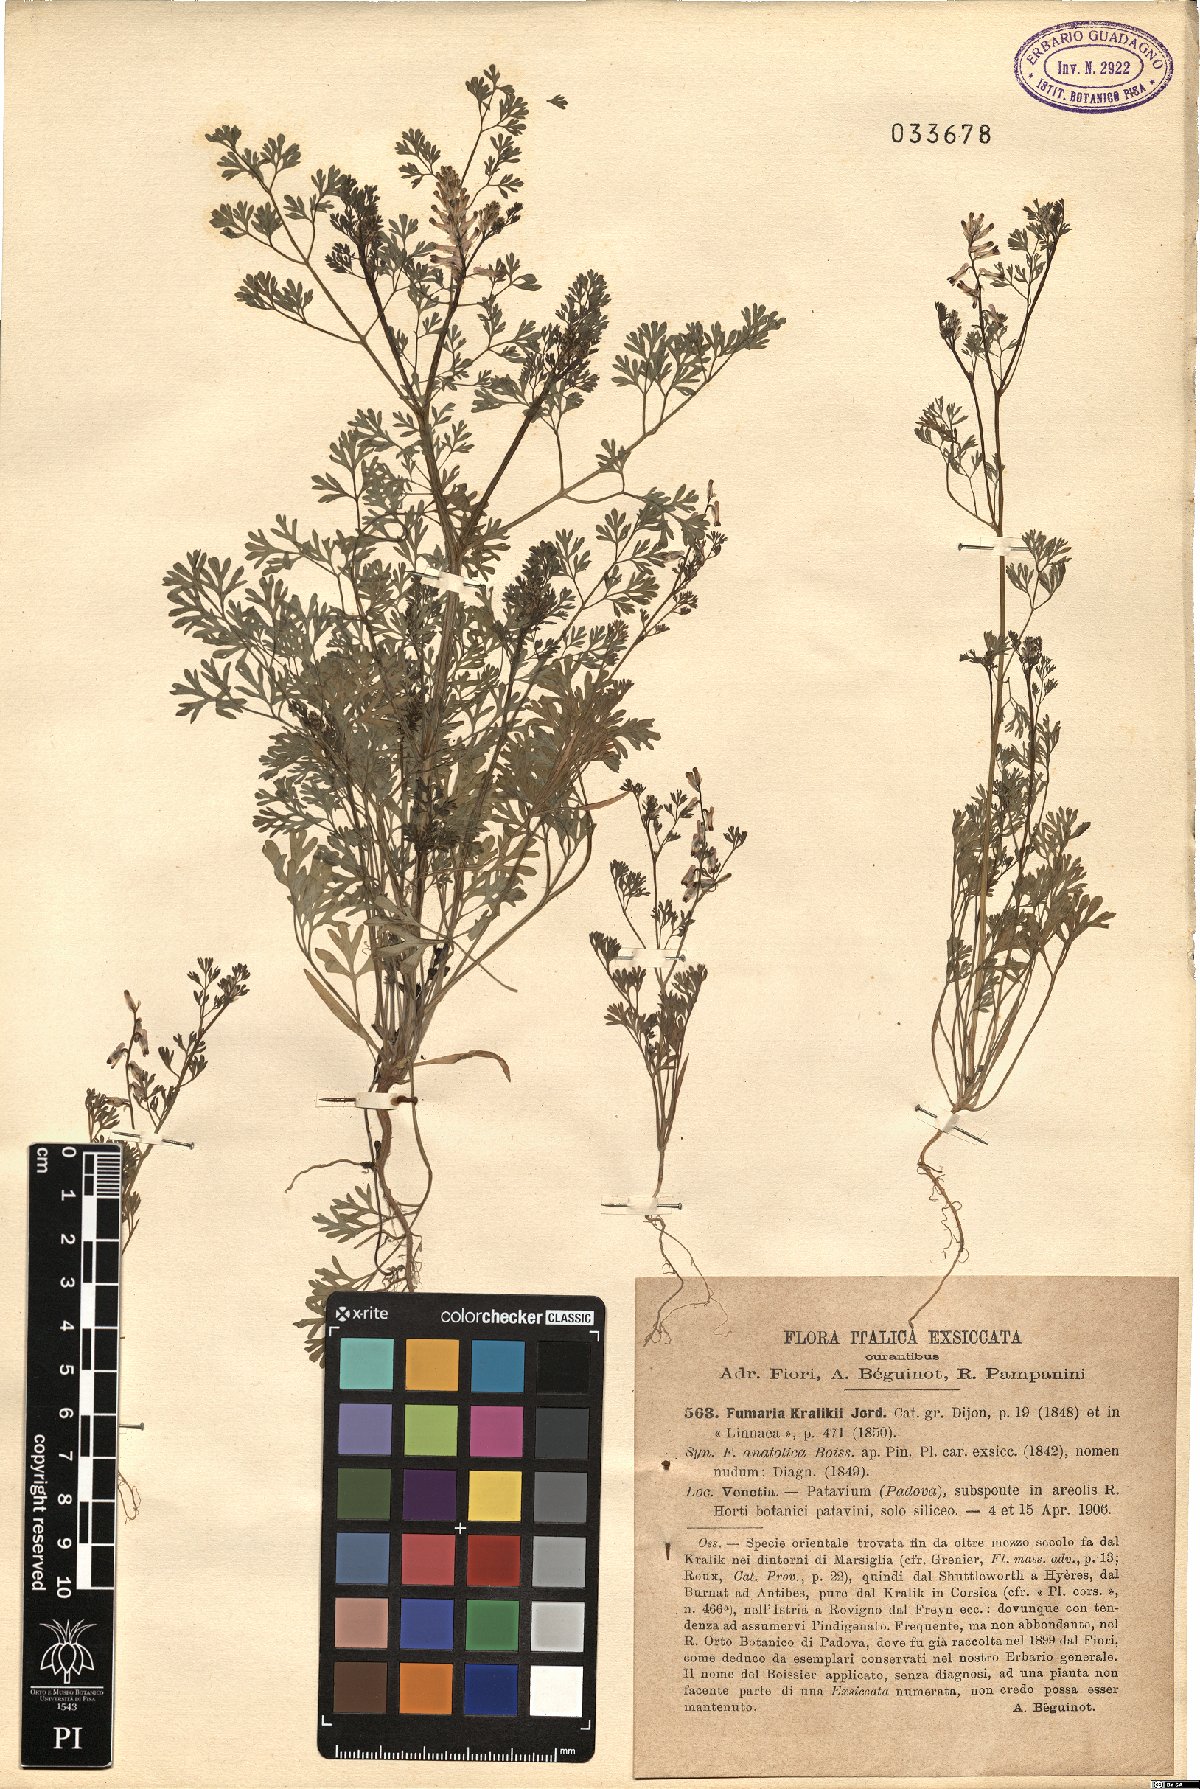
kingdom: Plantae
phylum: Tracheophyta
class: Magnoliopsida
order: Ranunculales
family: Papaveraceae
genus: Fumaria
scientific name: Fumaria kralikii
